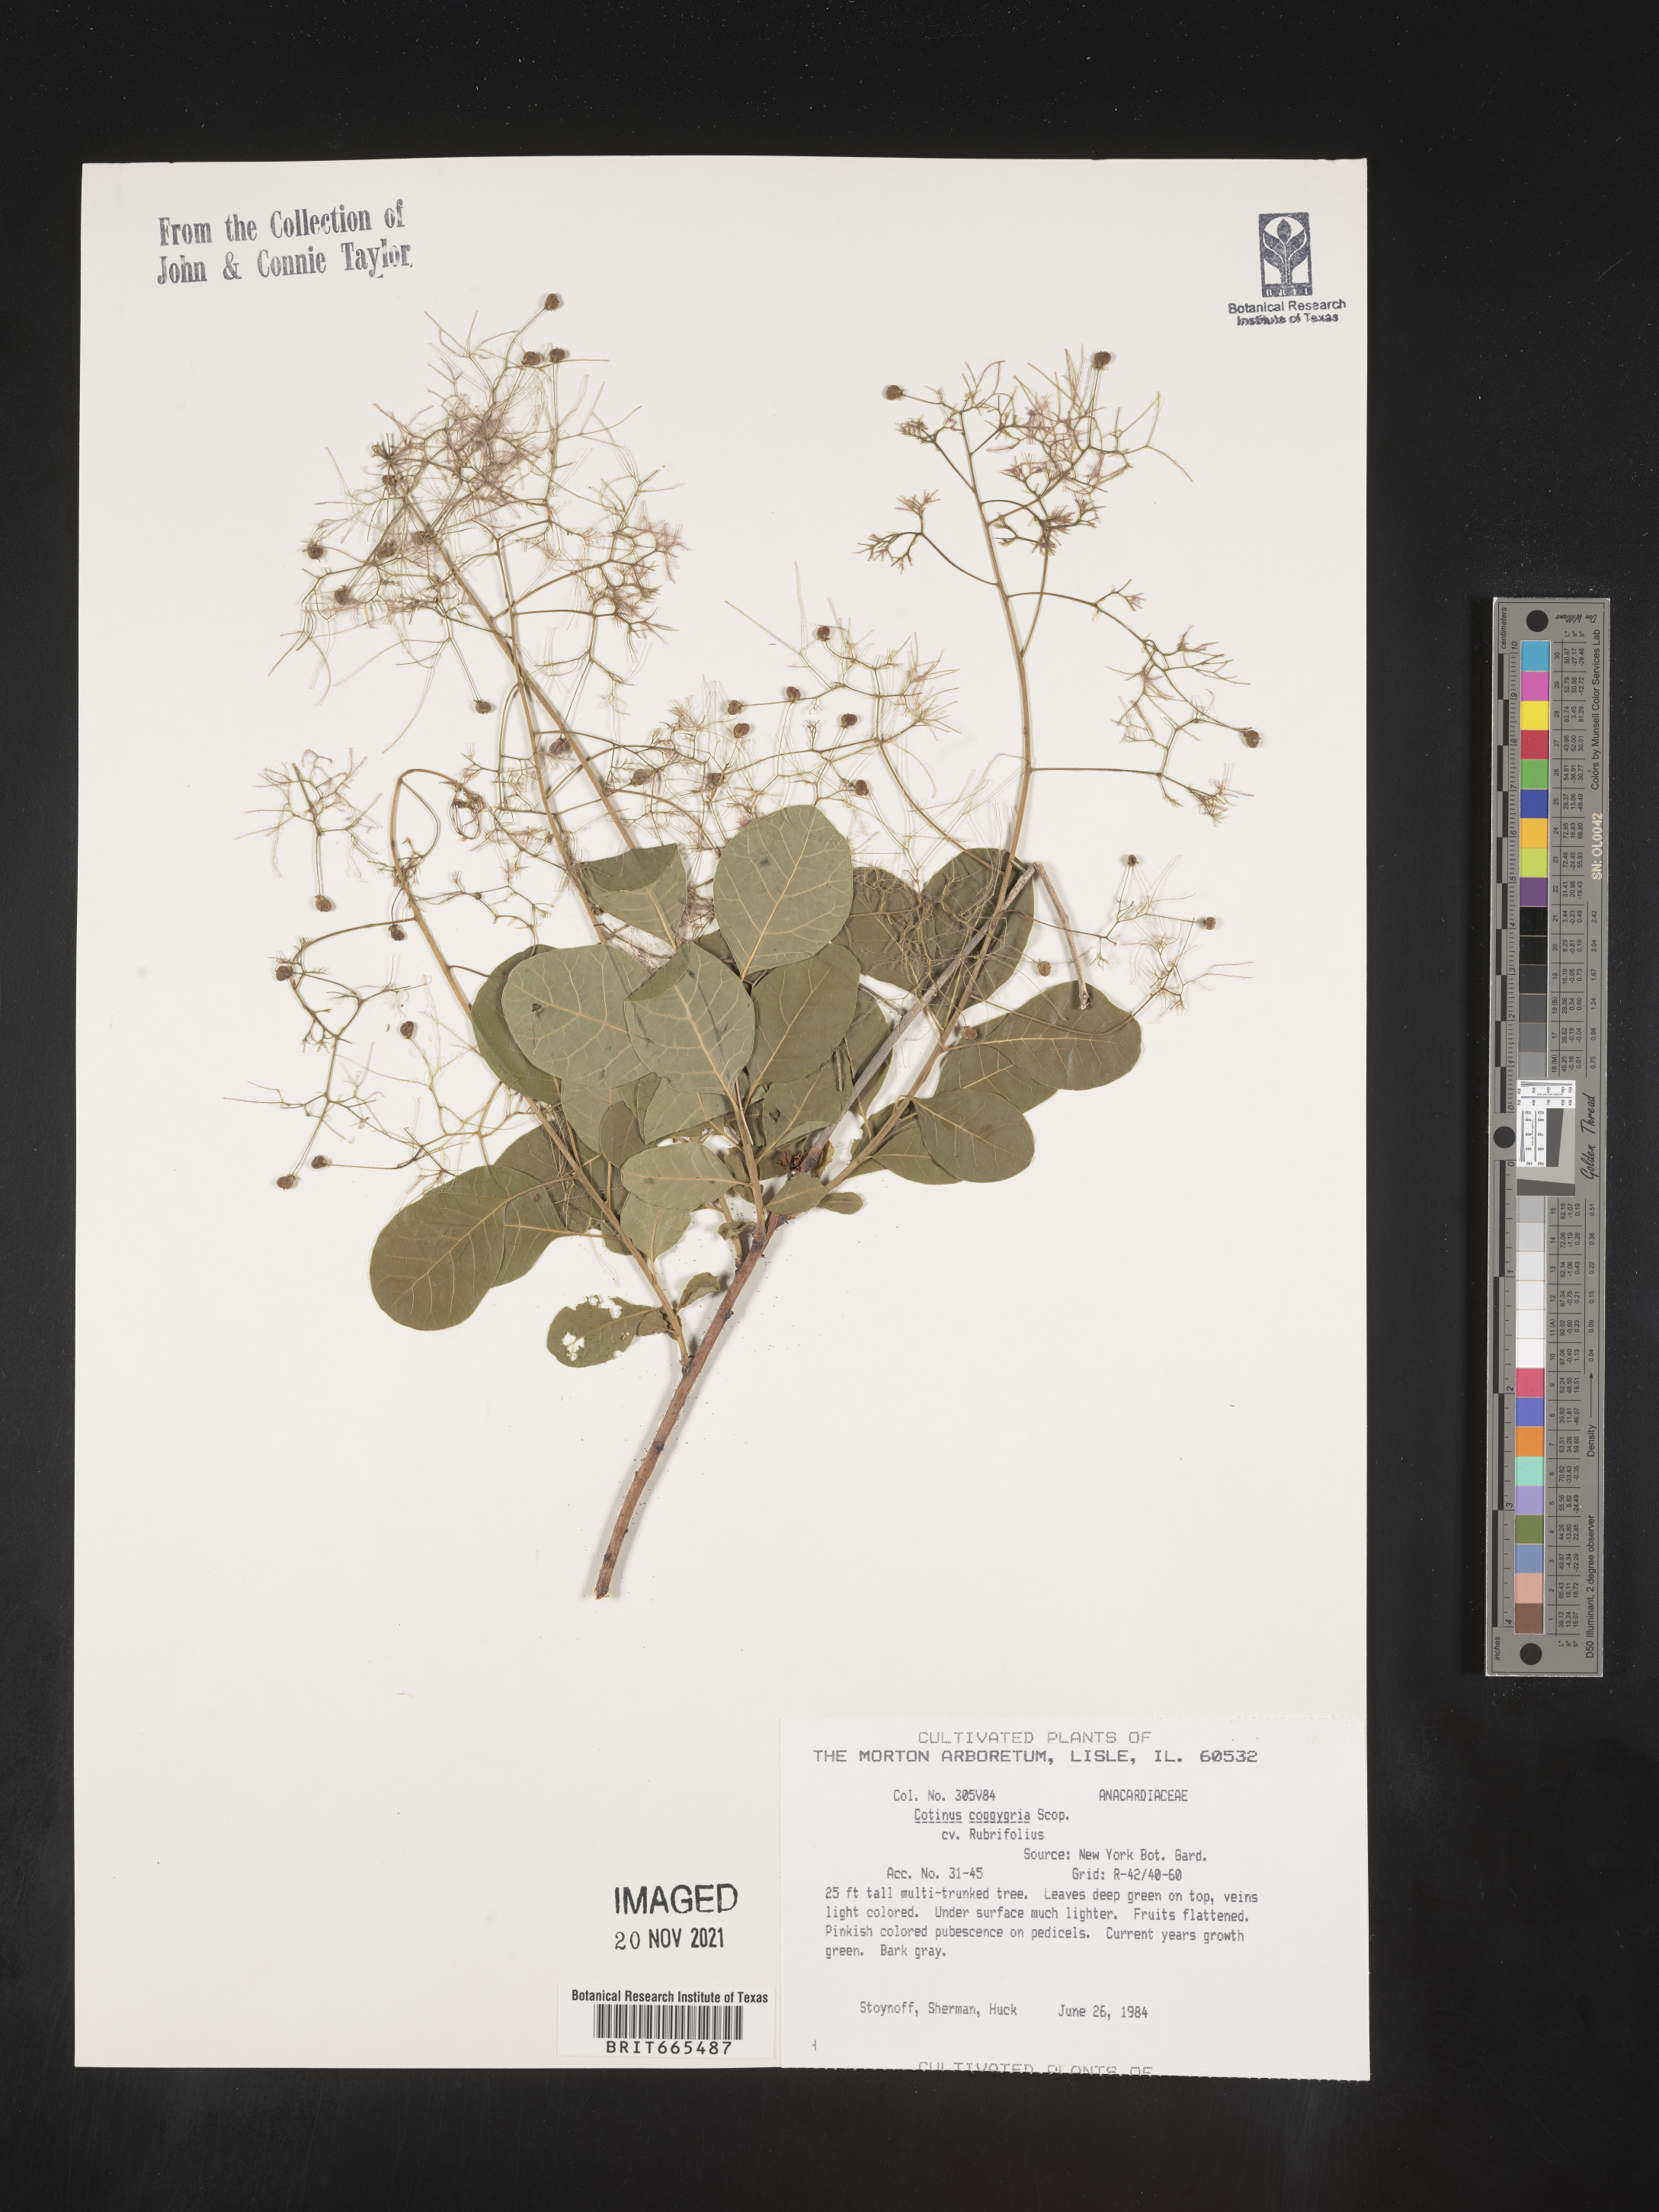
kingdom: Plantae
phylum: Tracheophyta
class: Magnoliopsida
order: Sapindales
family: Anacardiaceae
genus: Cotinus
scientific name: Cotinus
